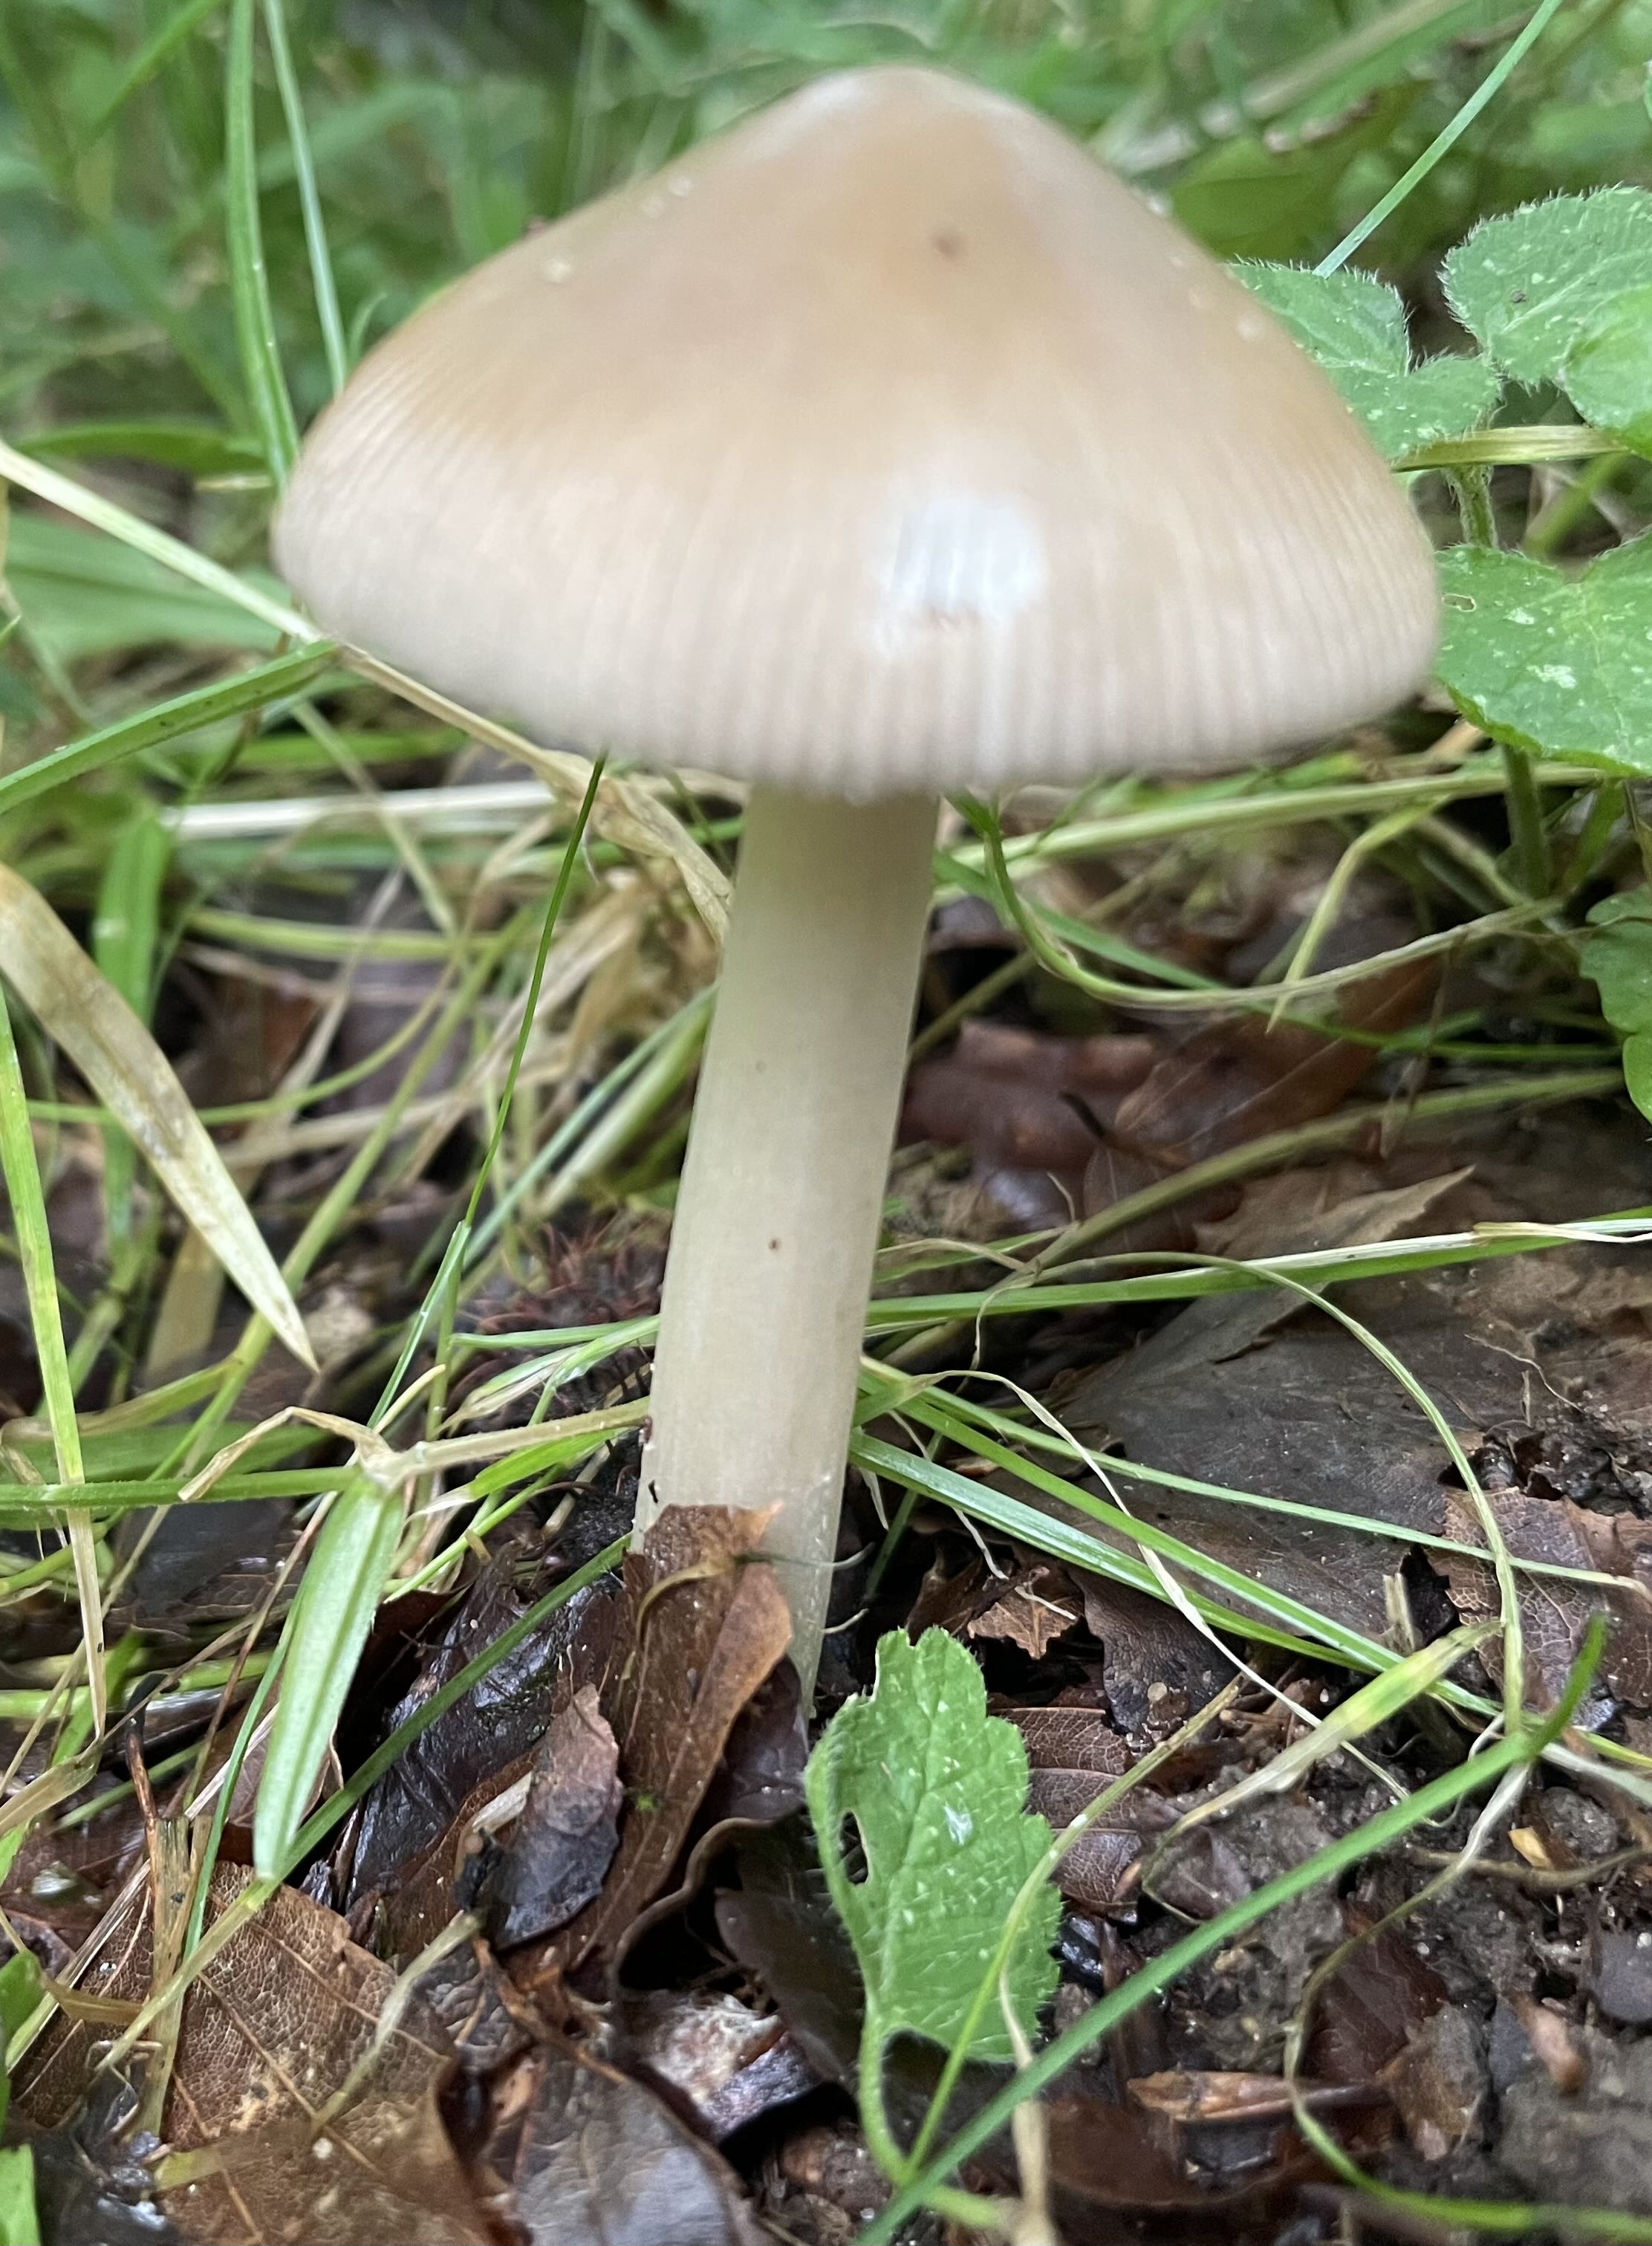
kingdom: Fungi
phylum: Basidiomycota
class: Agaricomycetes
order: Agaricales
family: Amanitaceae
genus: Amanita
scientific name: Amanita
